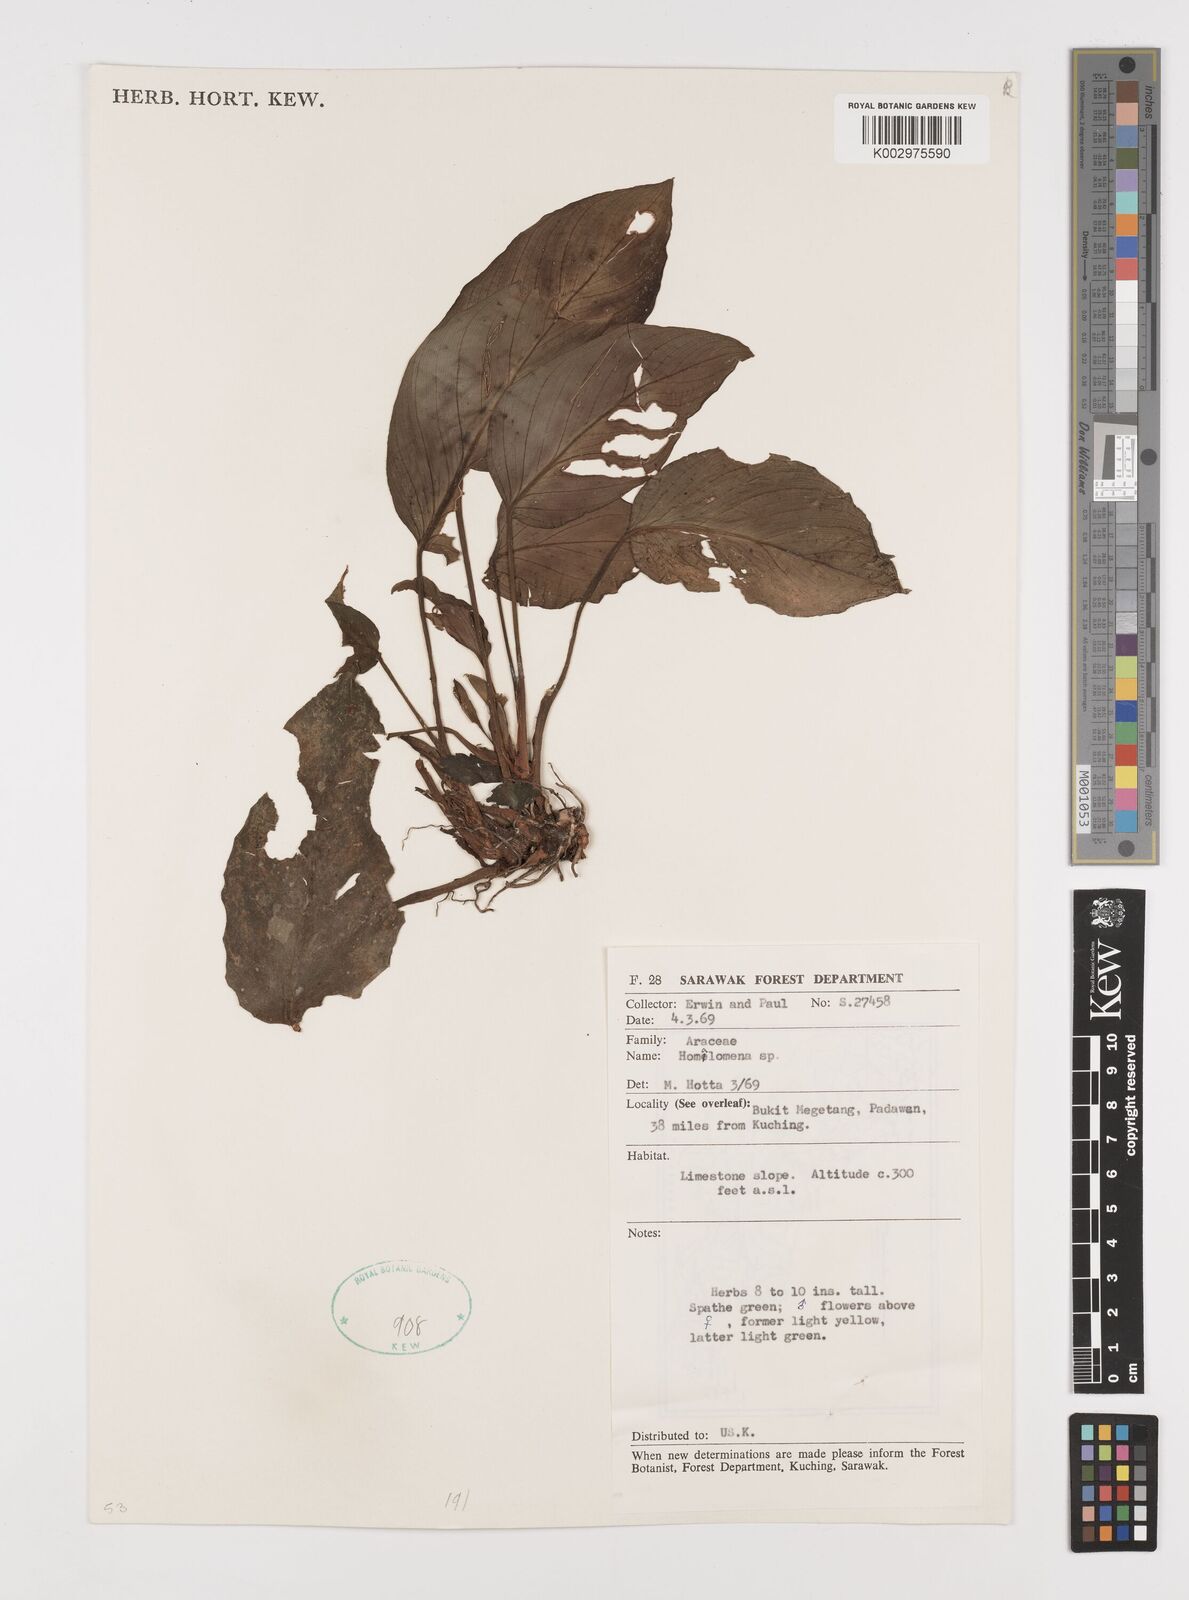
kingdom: Plantae
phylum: Tracheophyta
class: Liliopsida
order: Alismatales
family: Araceae
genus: Homalomena
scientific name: Homalomena
